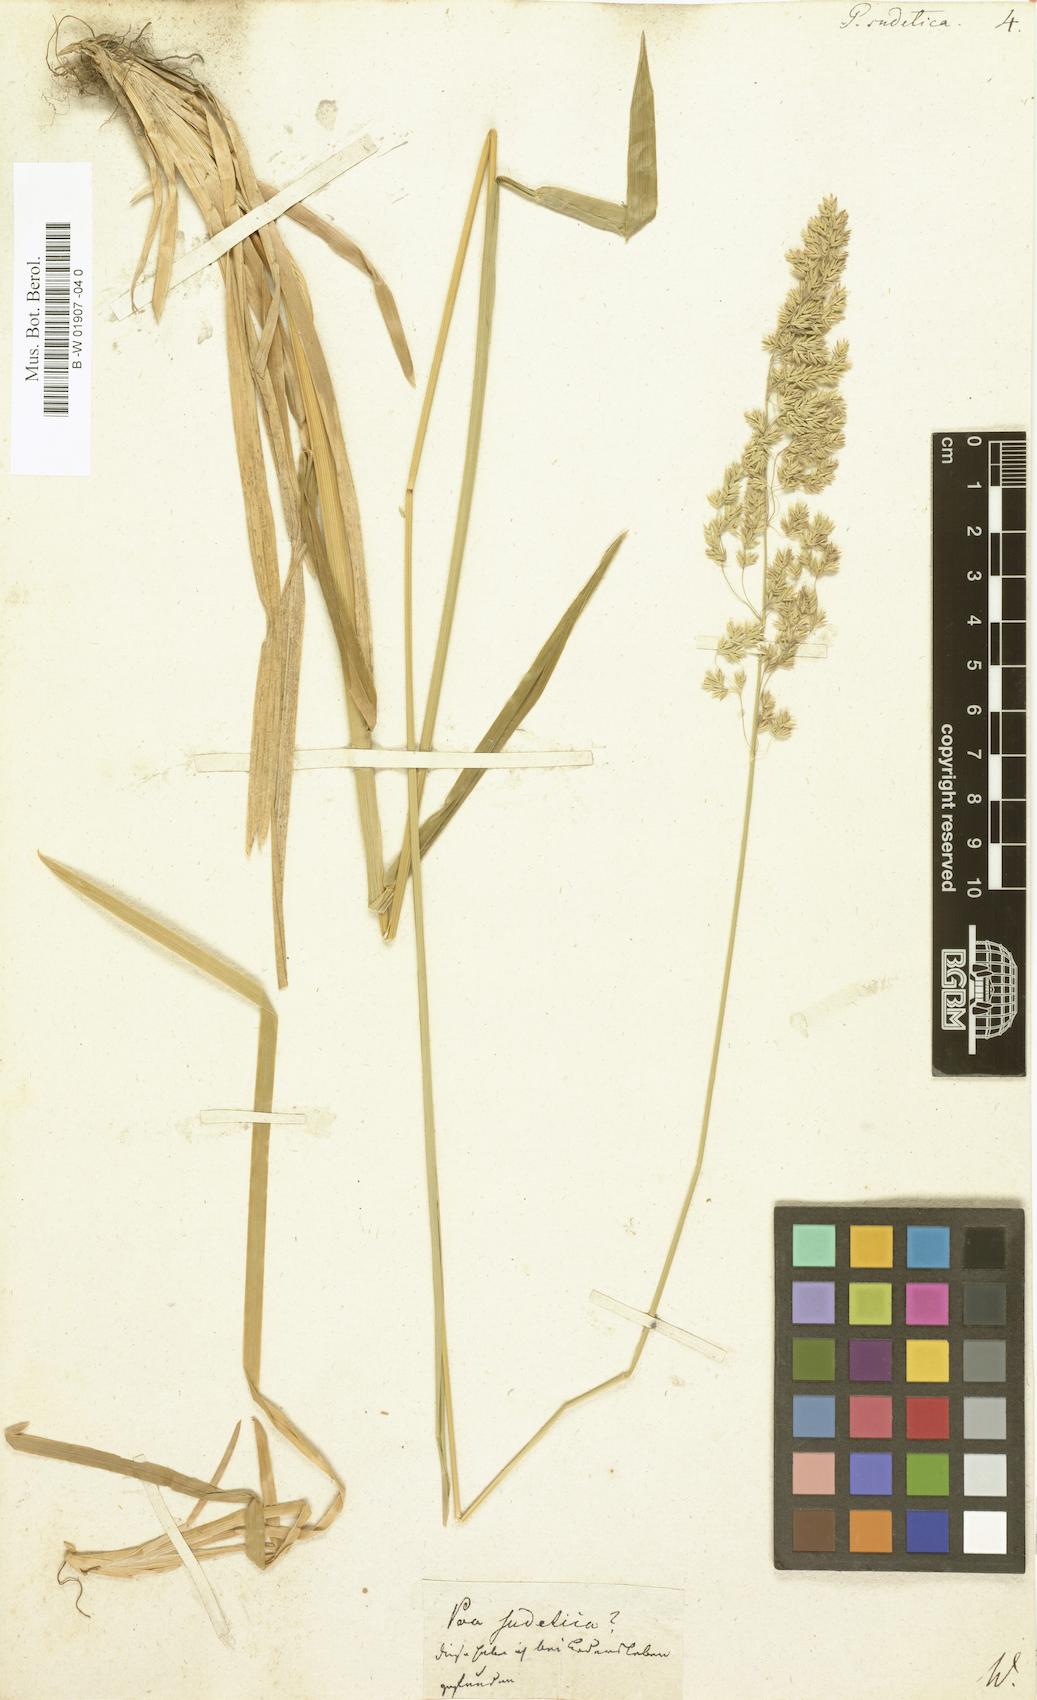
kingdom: Plantae
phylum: Tracheophyta
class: Liliopsida
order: Poales
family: Poaceae
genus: Poa
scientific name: Poa chaixii
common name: Broad-leaved meadow-grass
